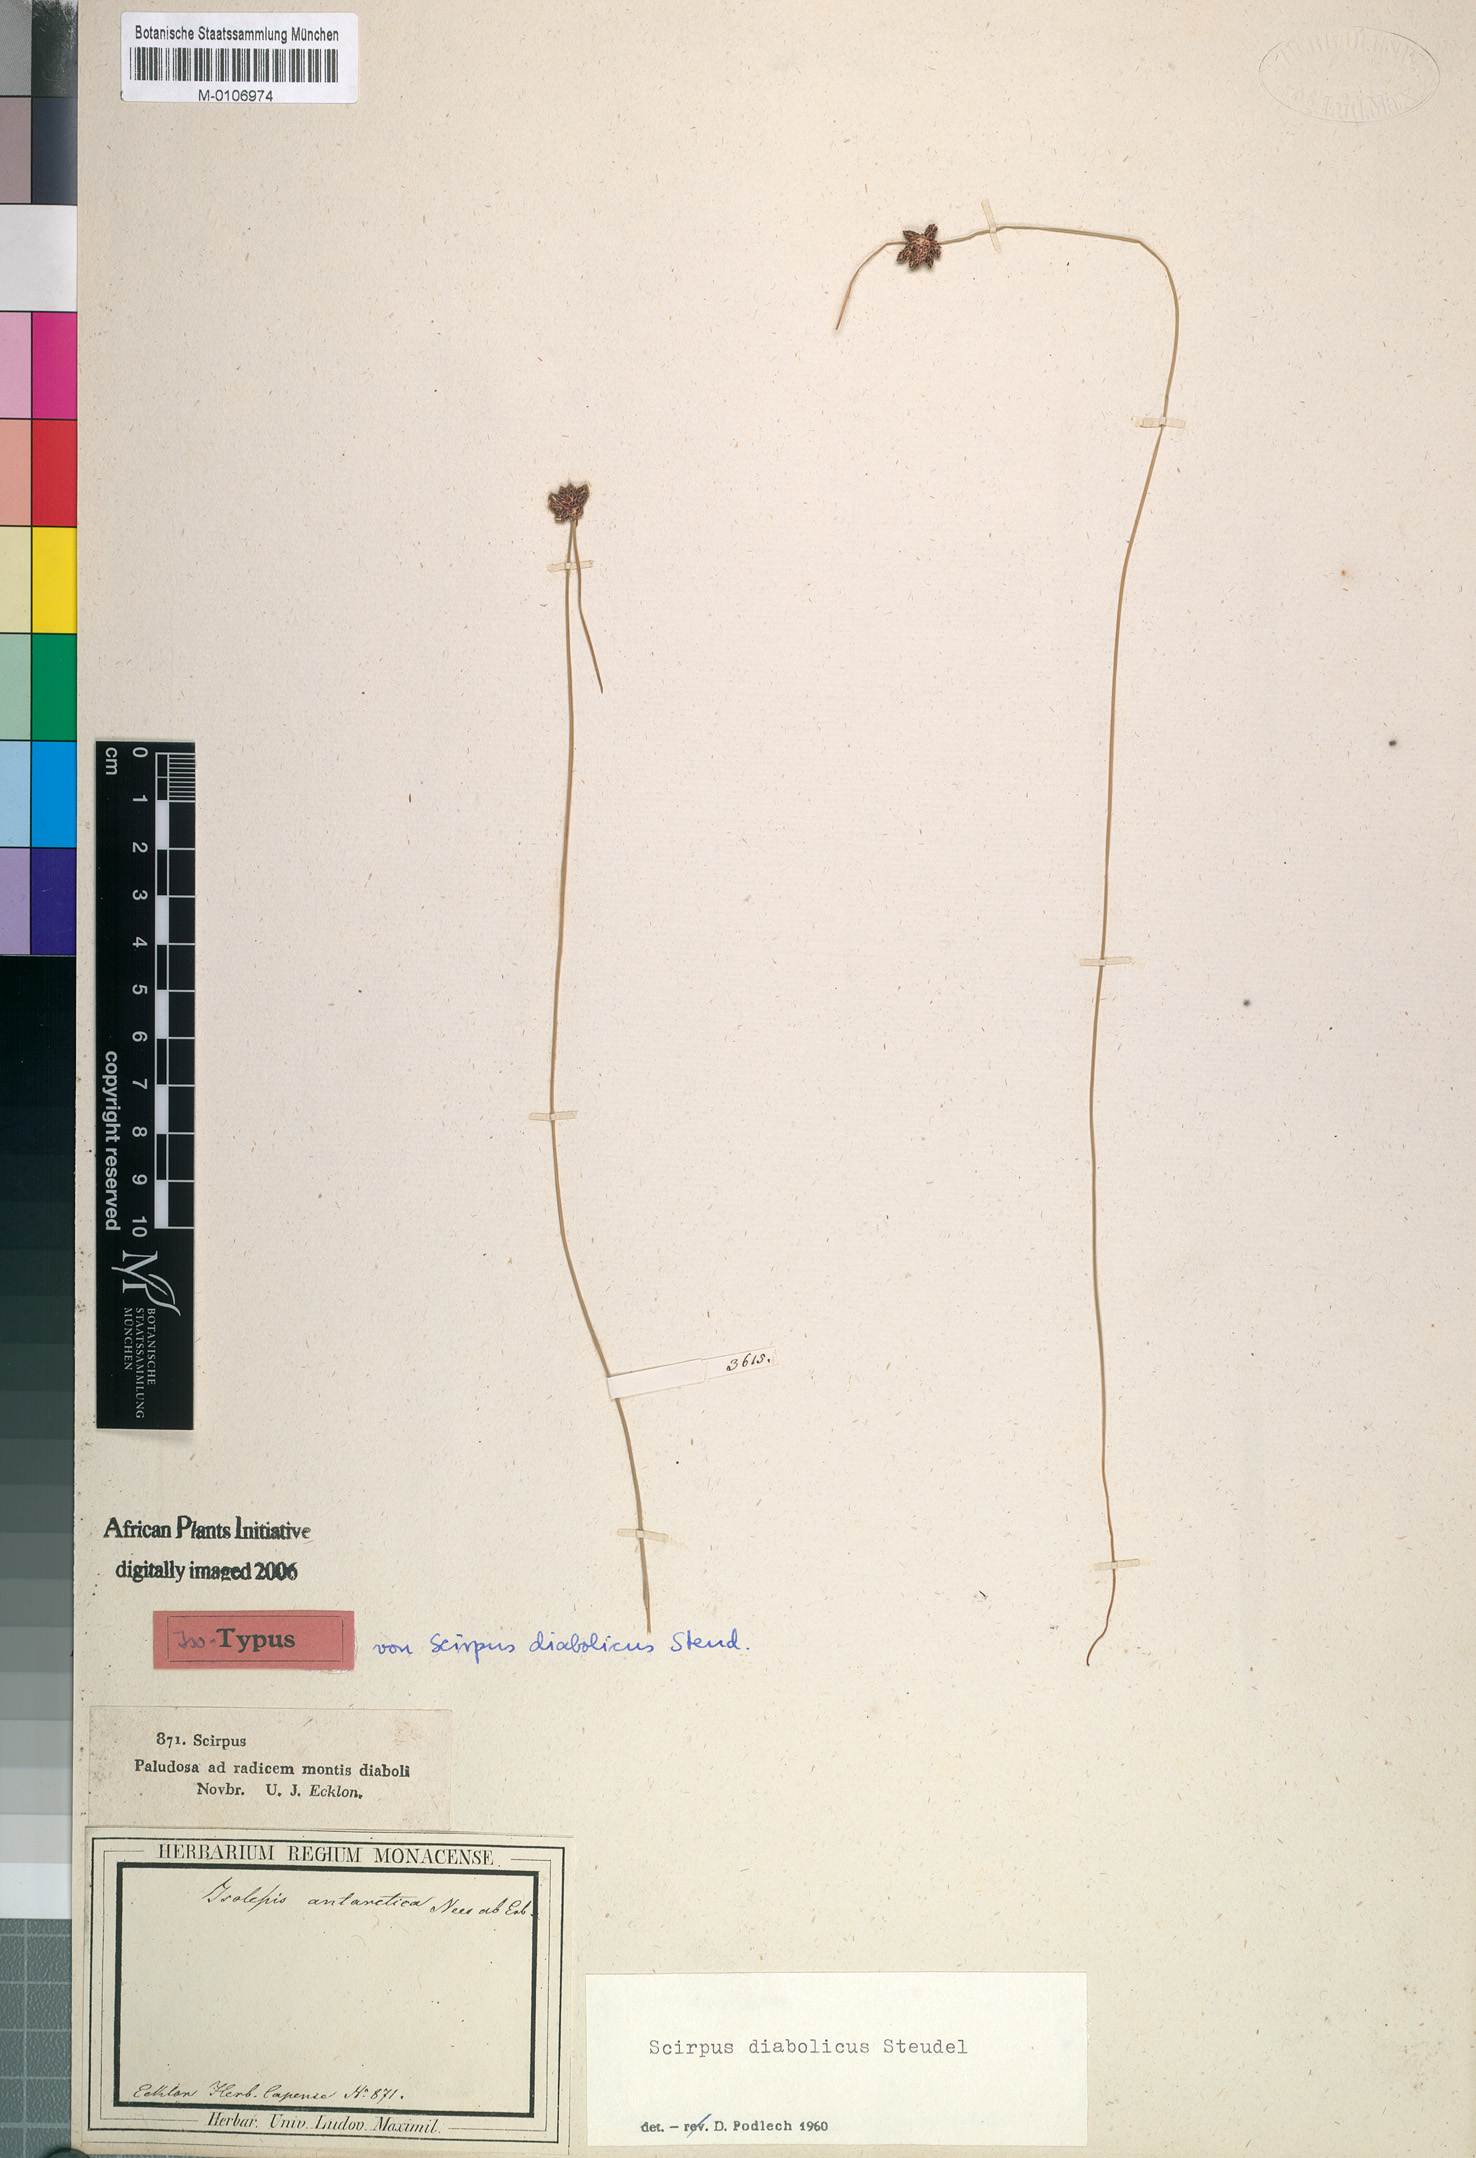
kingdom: Plantae
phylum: Tracheophyta
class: Liliopsida
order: Poales
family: Cyperaceae
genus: Isolepis
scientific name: Isolepis diabolica
